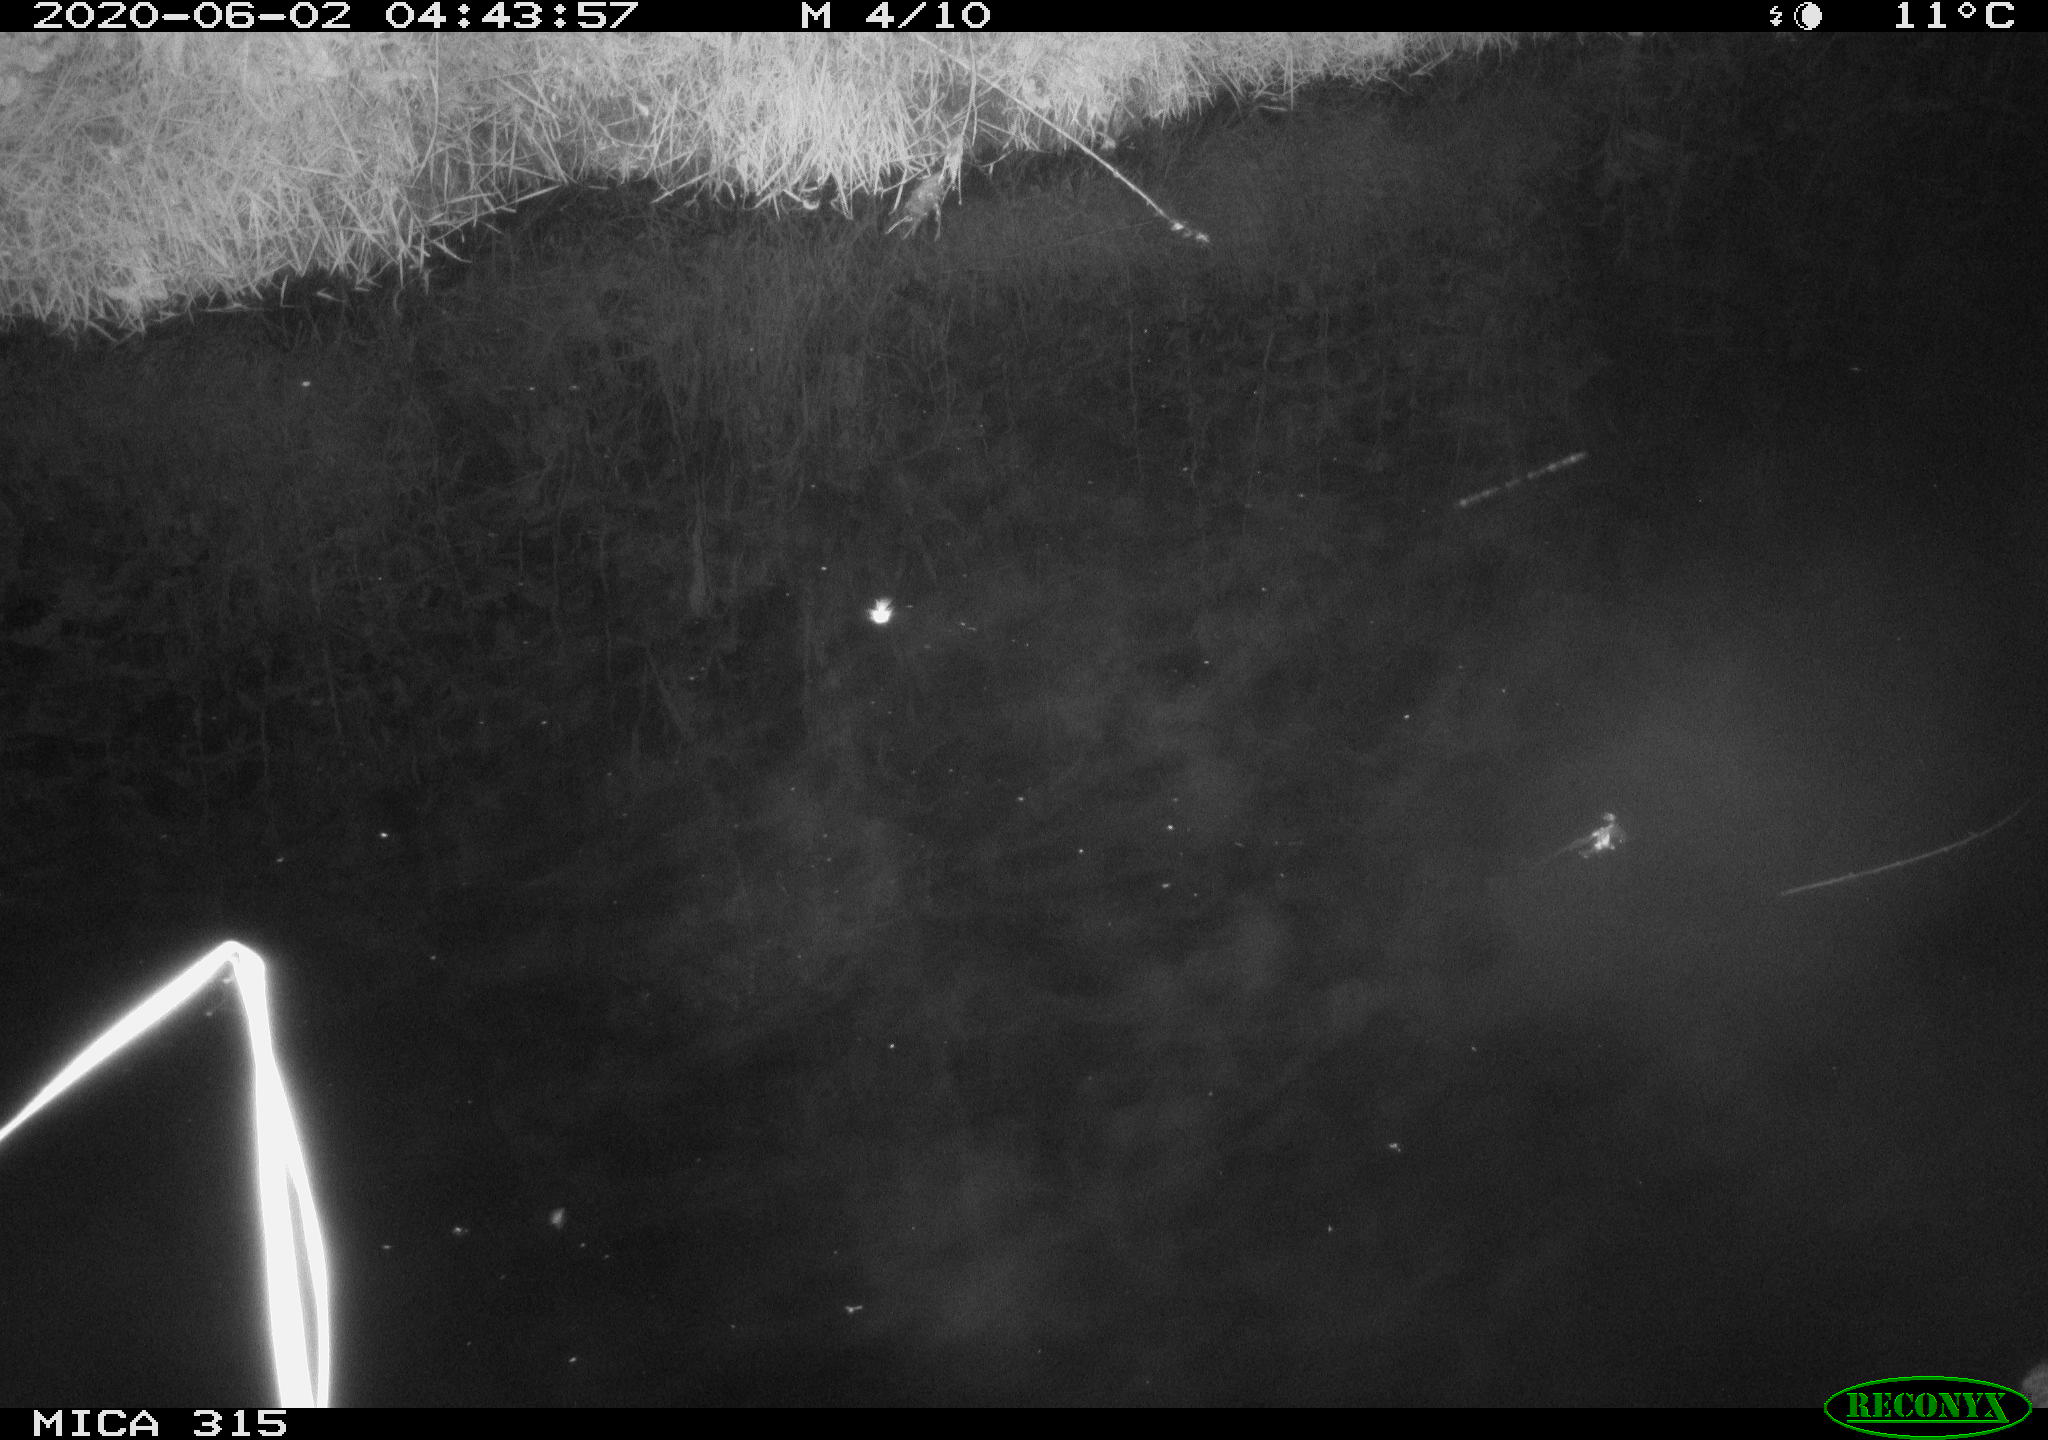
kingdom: Animalia
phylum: Chordata
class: Aves
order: Anseriformes
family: Anatidae
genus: Anas
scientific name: Anas platyrhynchos
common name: Mallard
